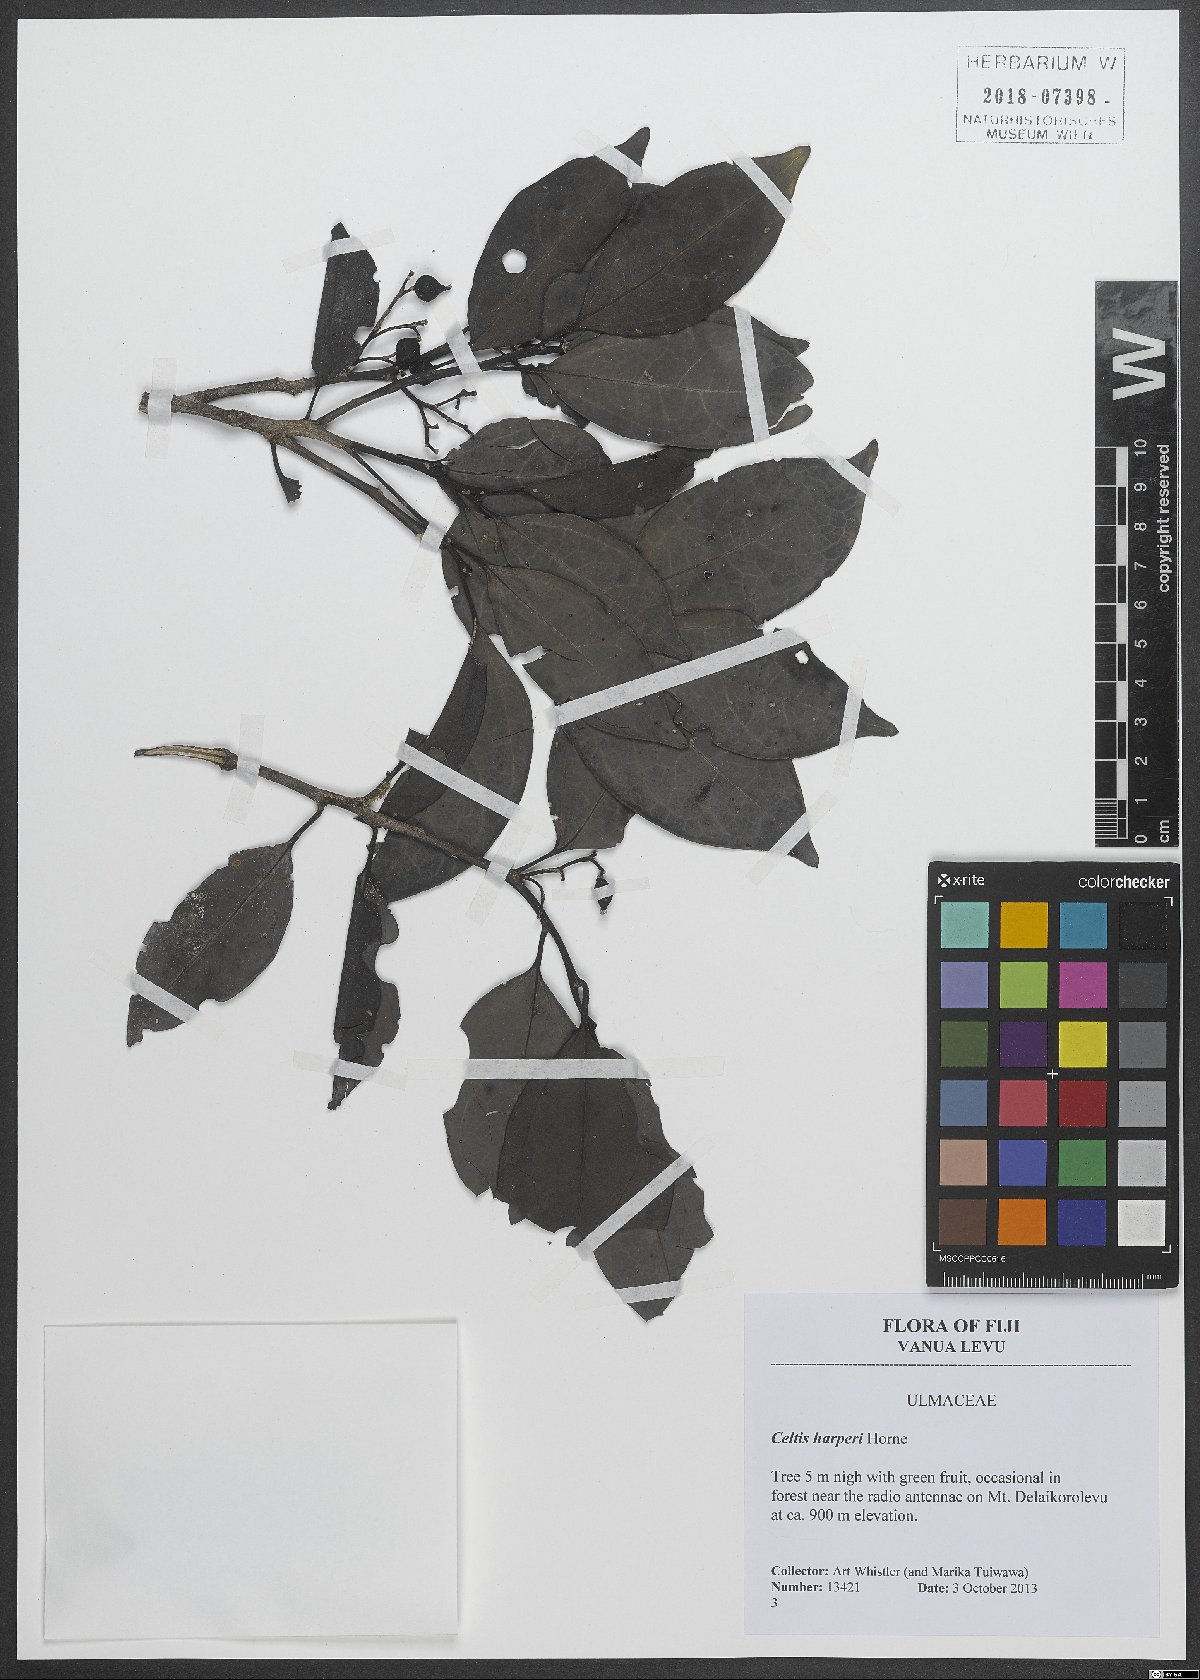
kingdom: Plantae
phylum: Tracheophyta
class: Magnoliopsida
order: Rosales
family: Cannabaceae
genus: Celtis
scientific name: Celtis harperi
